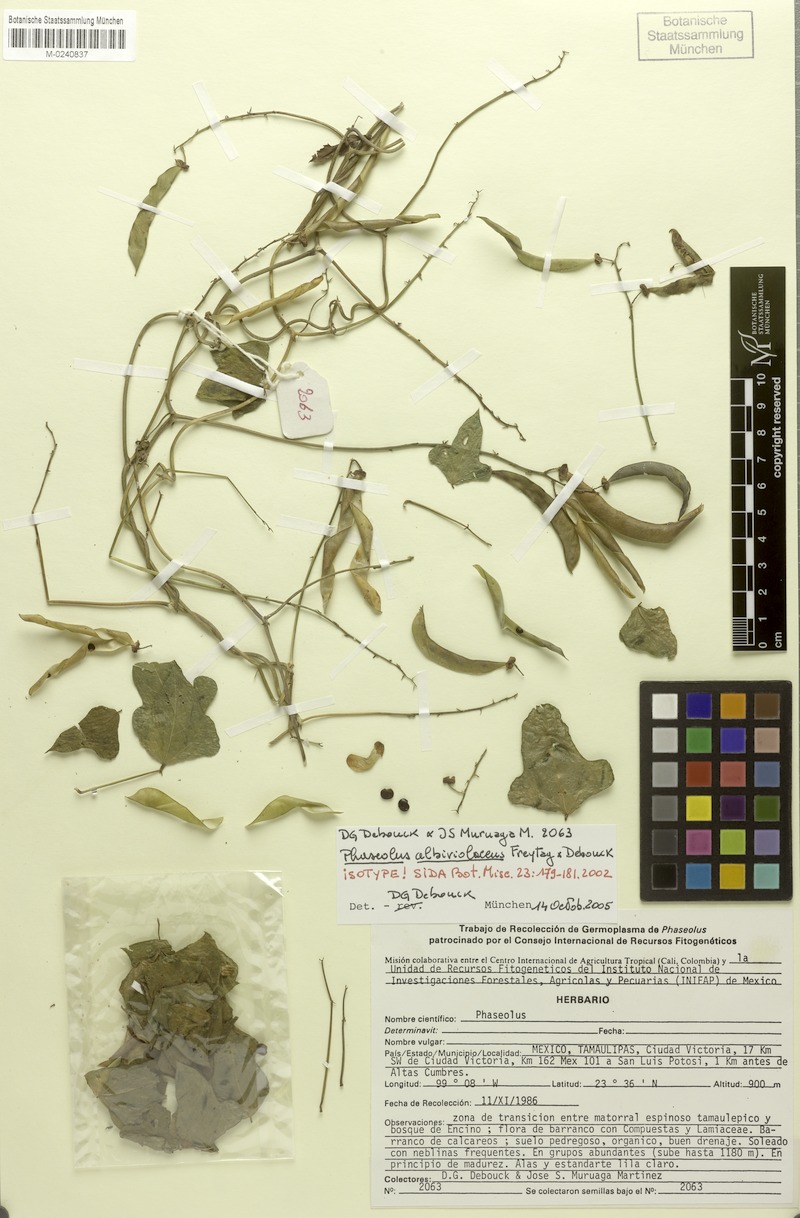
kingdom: Plantae
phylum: Tracheophyta
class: Magnoliopsida
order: Fabales
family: Fabaceae
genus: Phaseolus
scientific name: Phaseolus albiviolaceus
